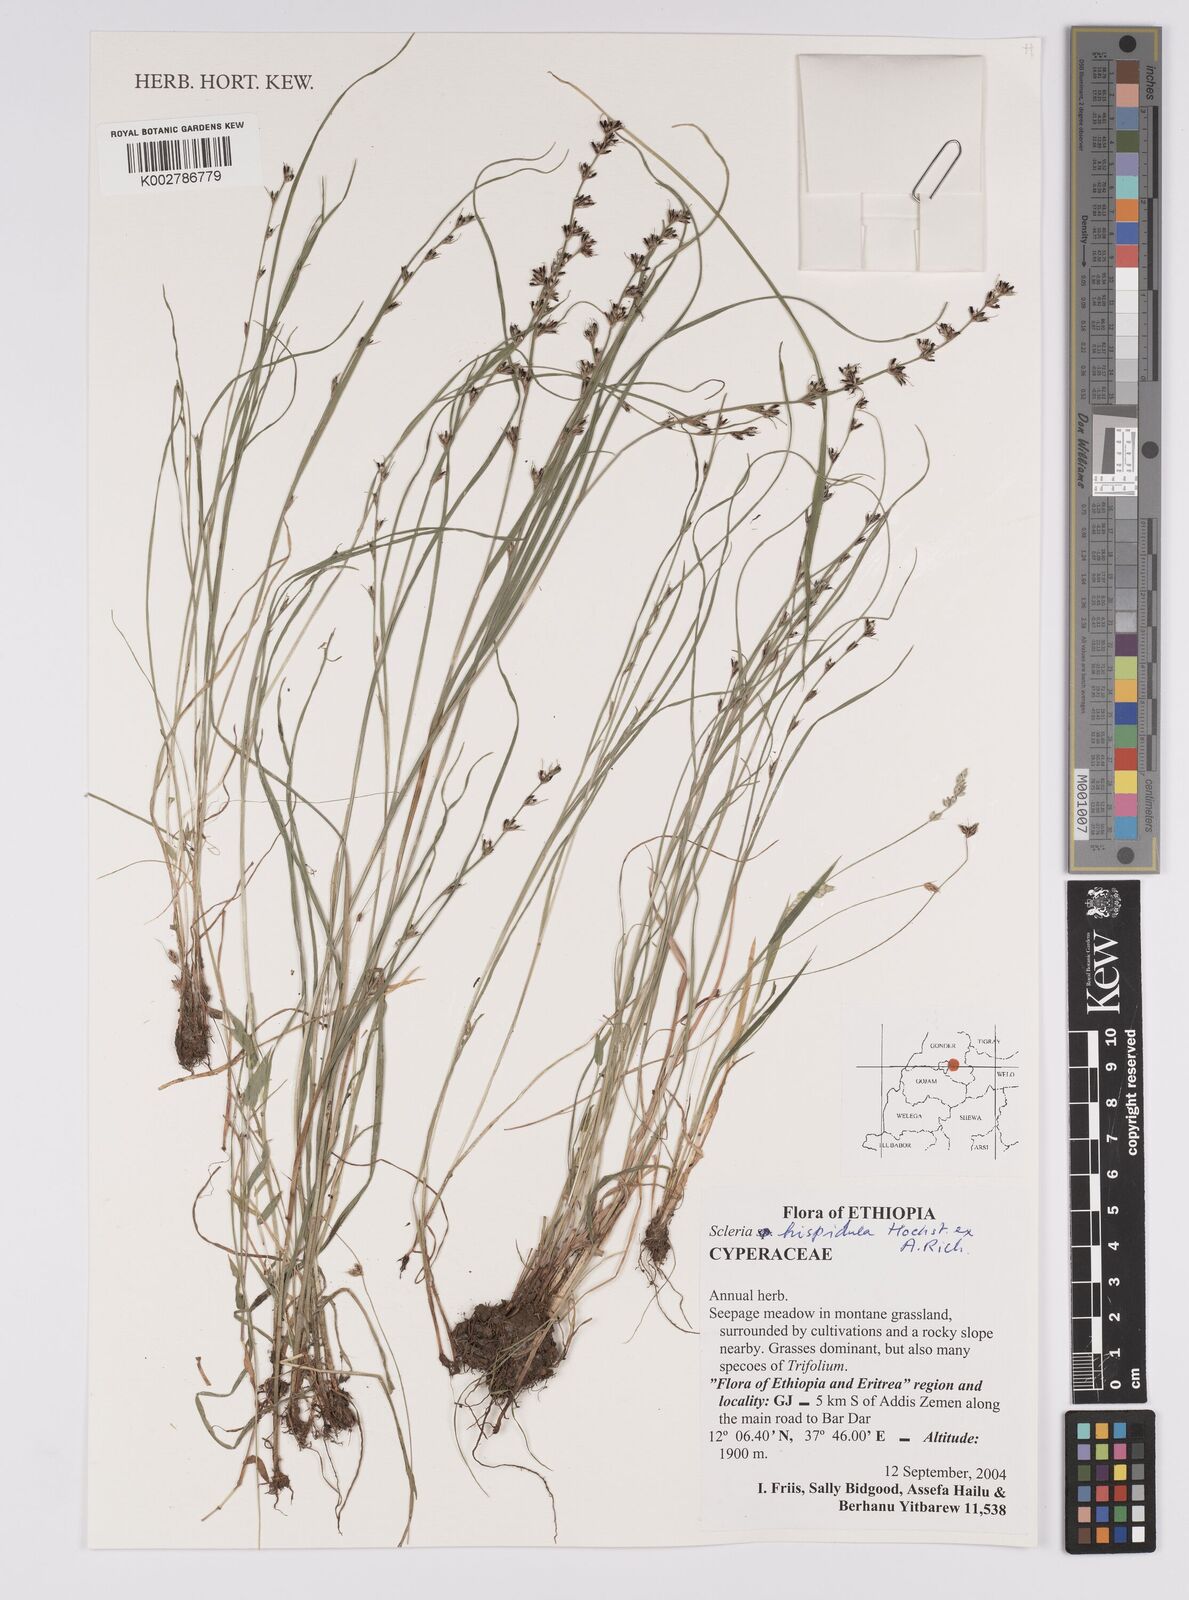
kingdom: Plantae
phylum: Tracheophyta
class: Liliopsida
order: Poales
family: Cyperaceae
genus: Scleria
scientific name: Scleria hispidula
